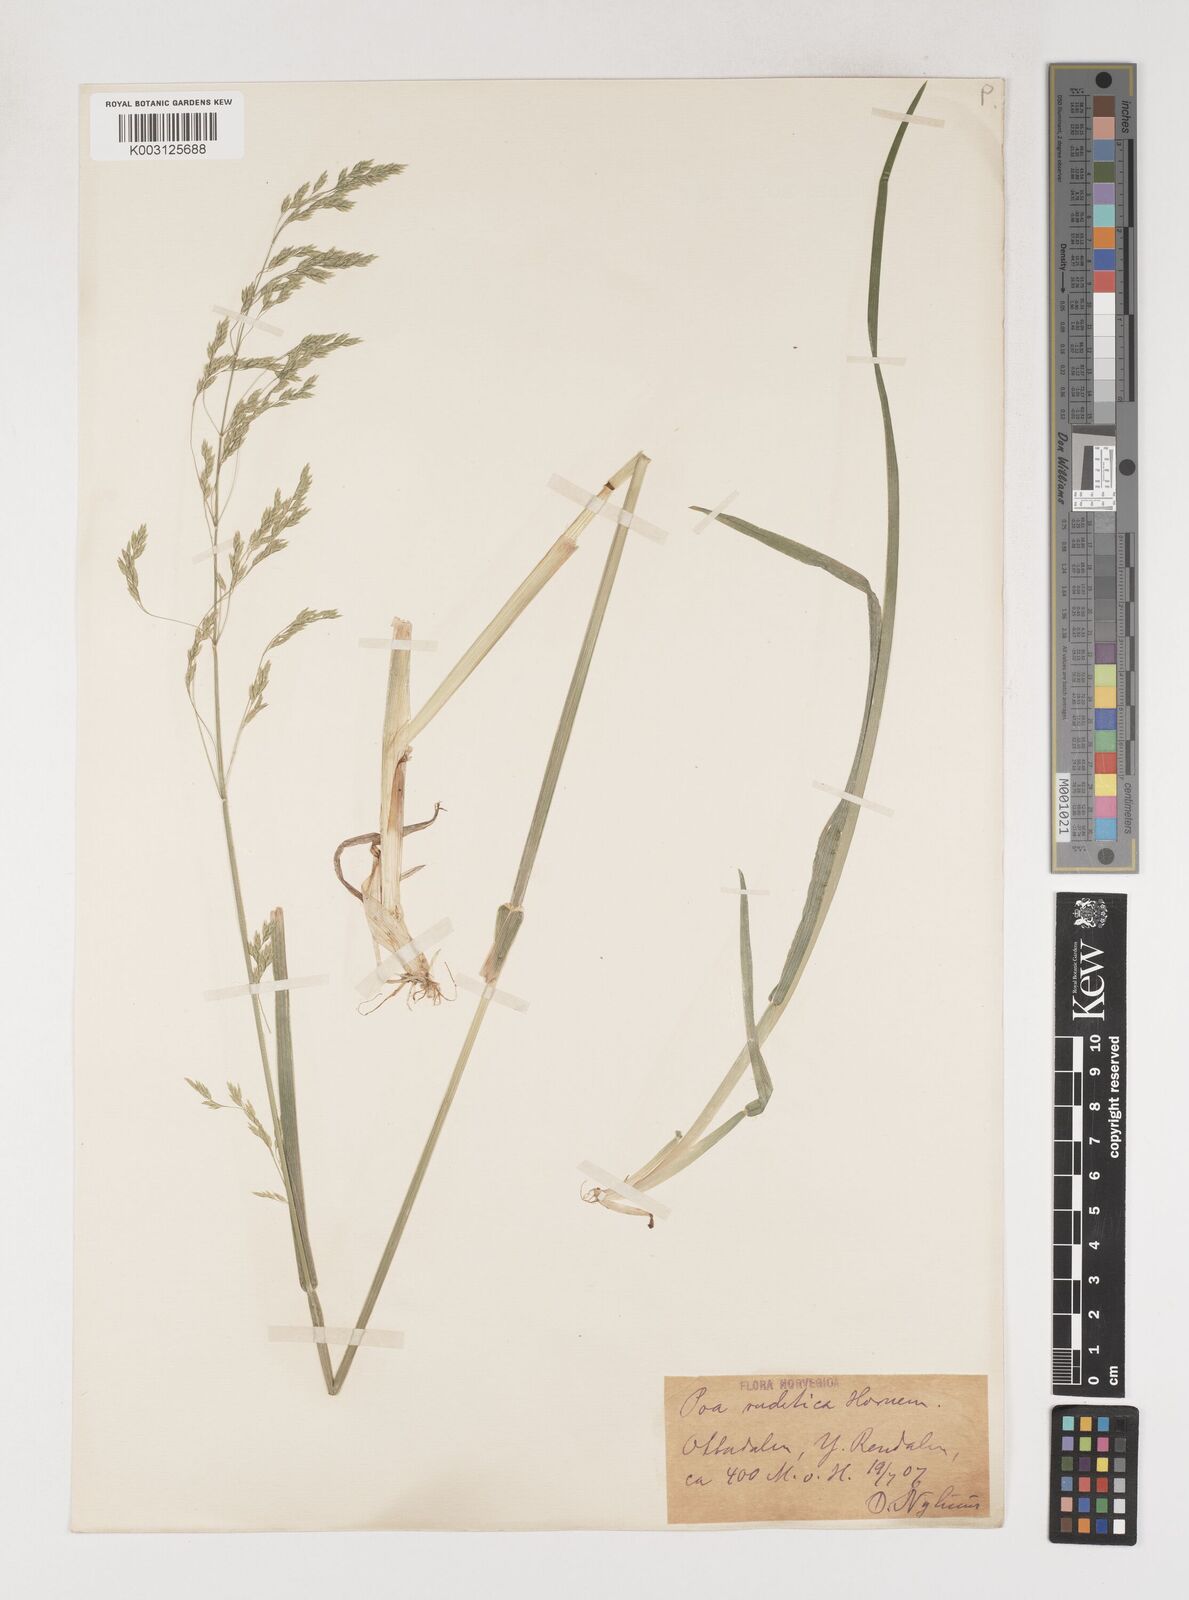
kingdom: Plantae
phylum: Tracheophyta
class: Liliopsida
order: Poales
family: Poaceae
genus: Poa
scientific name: Poa chaixii
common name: Broad-leaved meadow-grass
